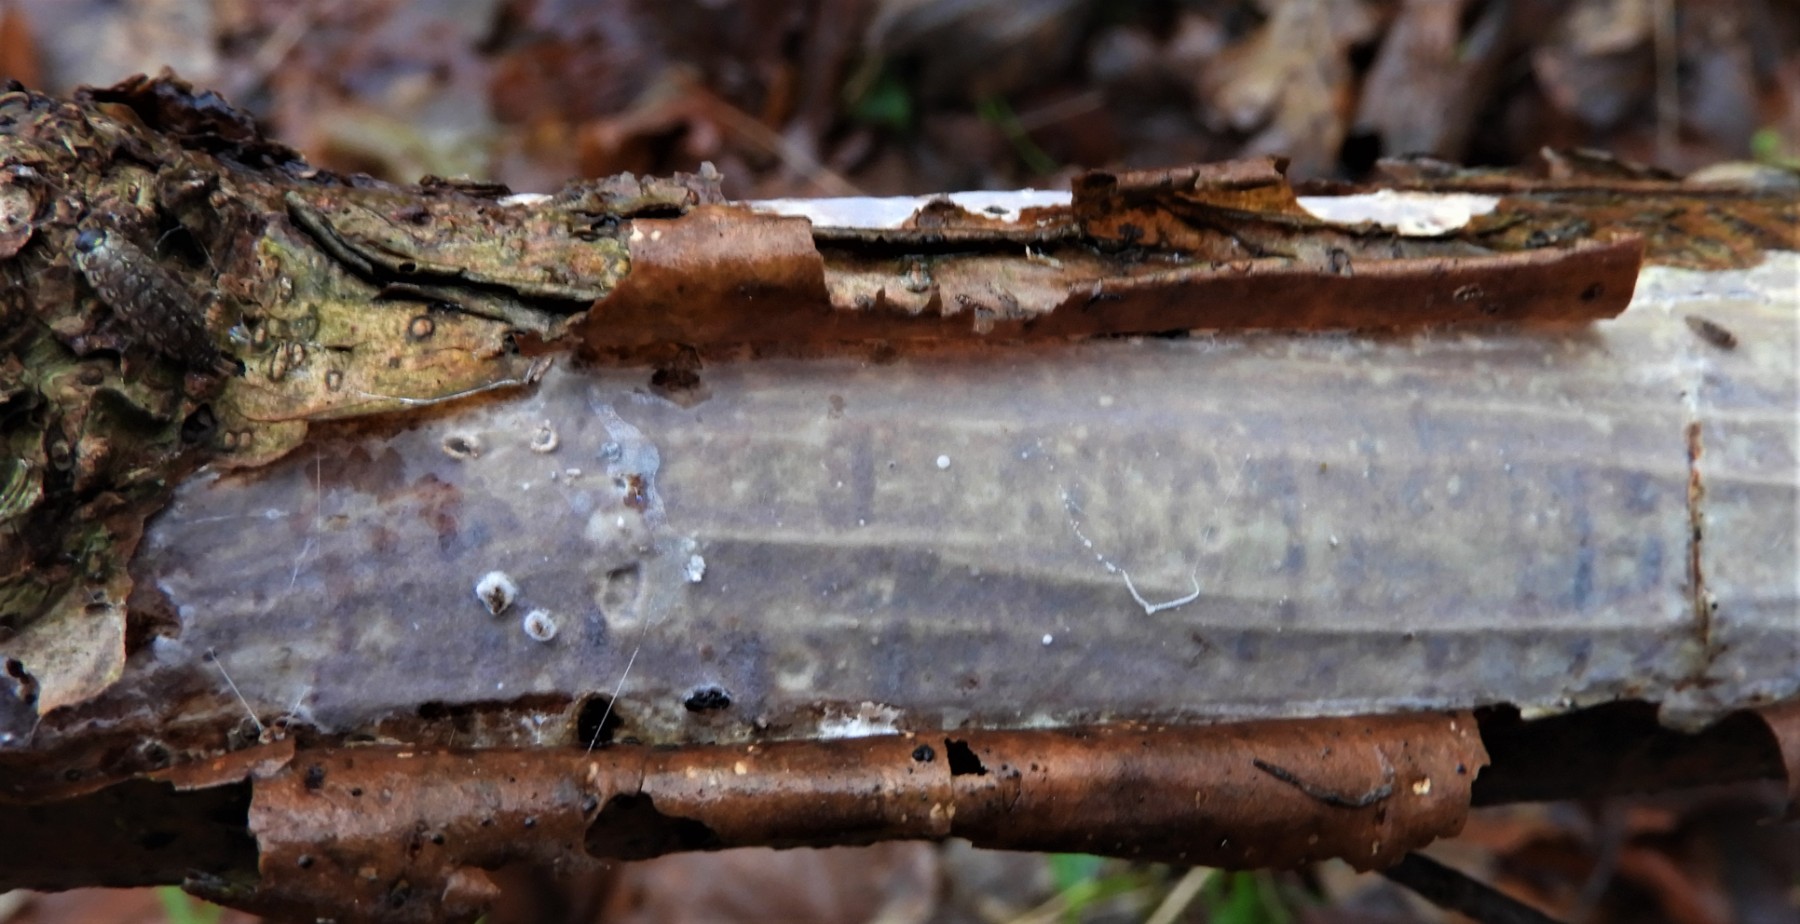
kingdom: Fungi
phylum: Basidiomycota
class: Agaricomycetes
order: Corticiales
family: Vuilleminiaceae
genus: Vuilleminia
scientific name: Vuilleminia coryli
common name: hassel-barksprænger
